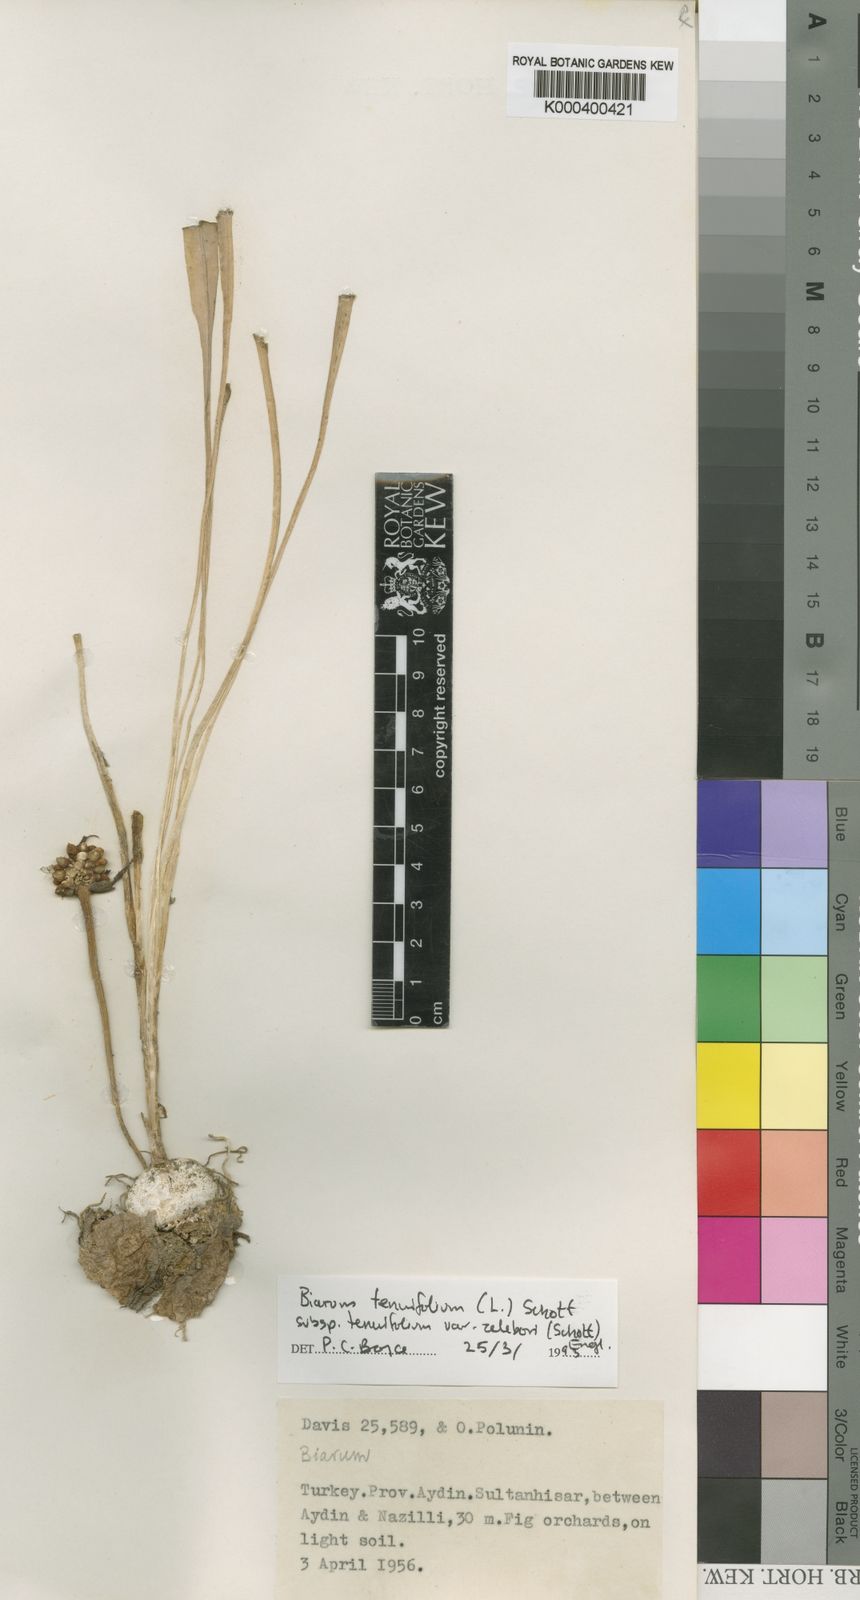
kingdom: Plantae
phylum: Tracheophyta
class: Liliopsida
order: Alismatales
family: Araceae
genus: Biarum
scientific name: Biarum tenuifolium
